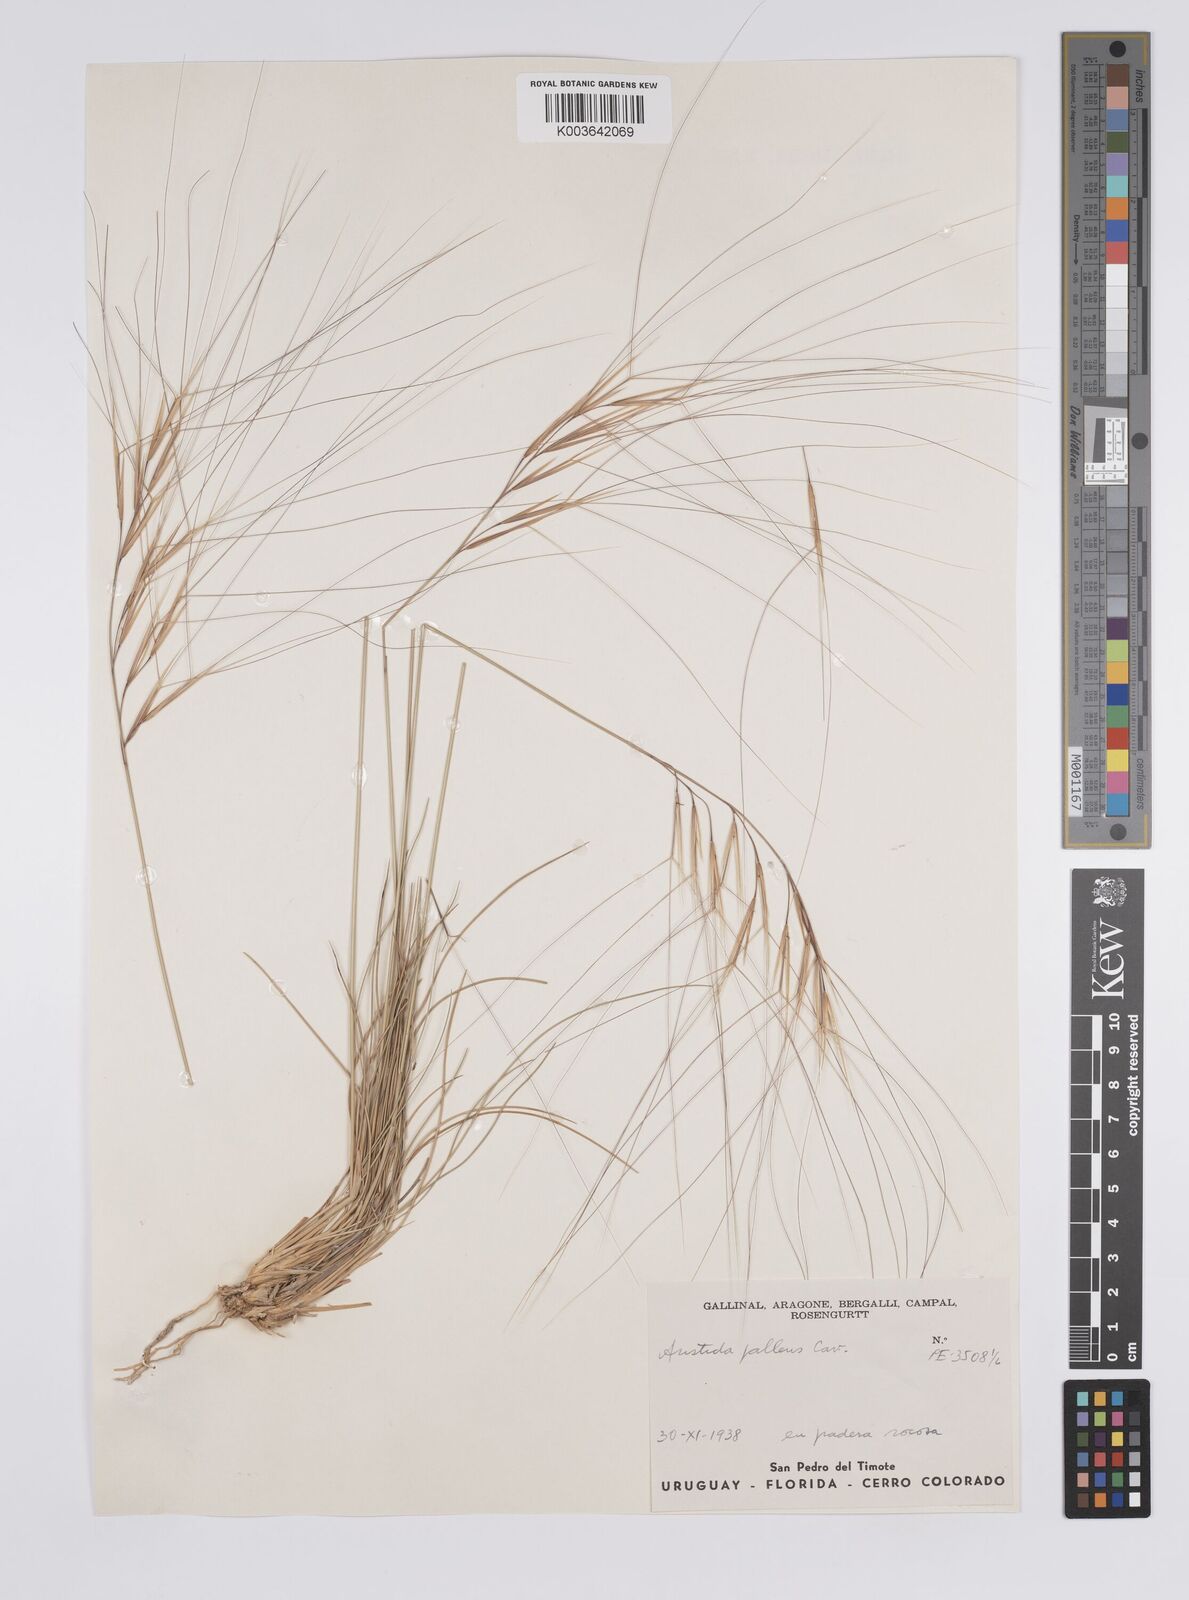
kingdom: Plantae
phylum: Tracheophyta
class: Liliopsida
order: Poales
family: Poaceae
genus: Aristida
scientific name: Aristida pallens
